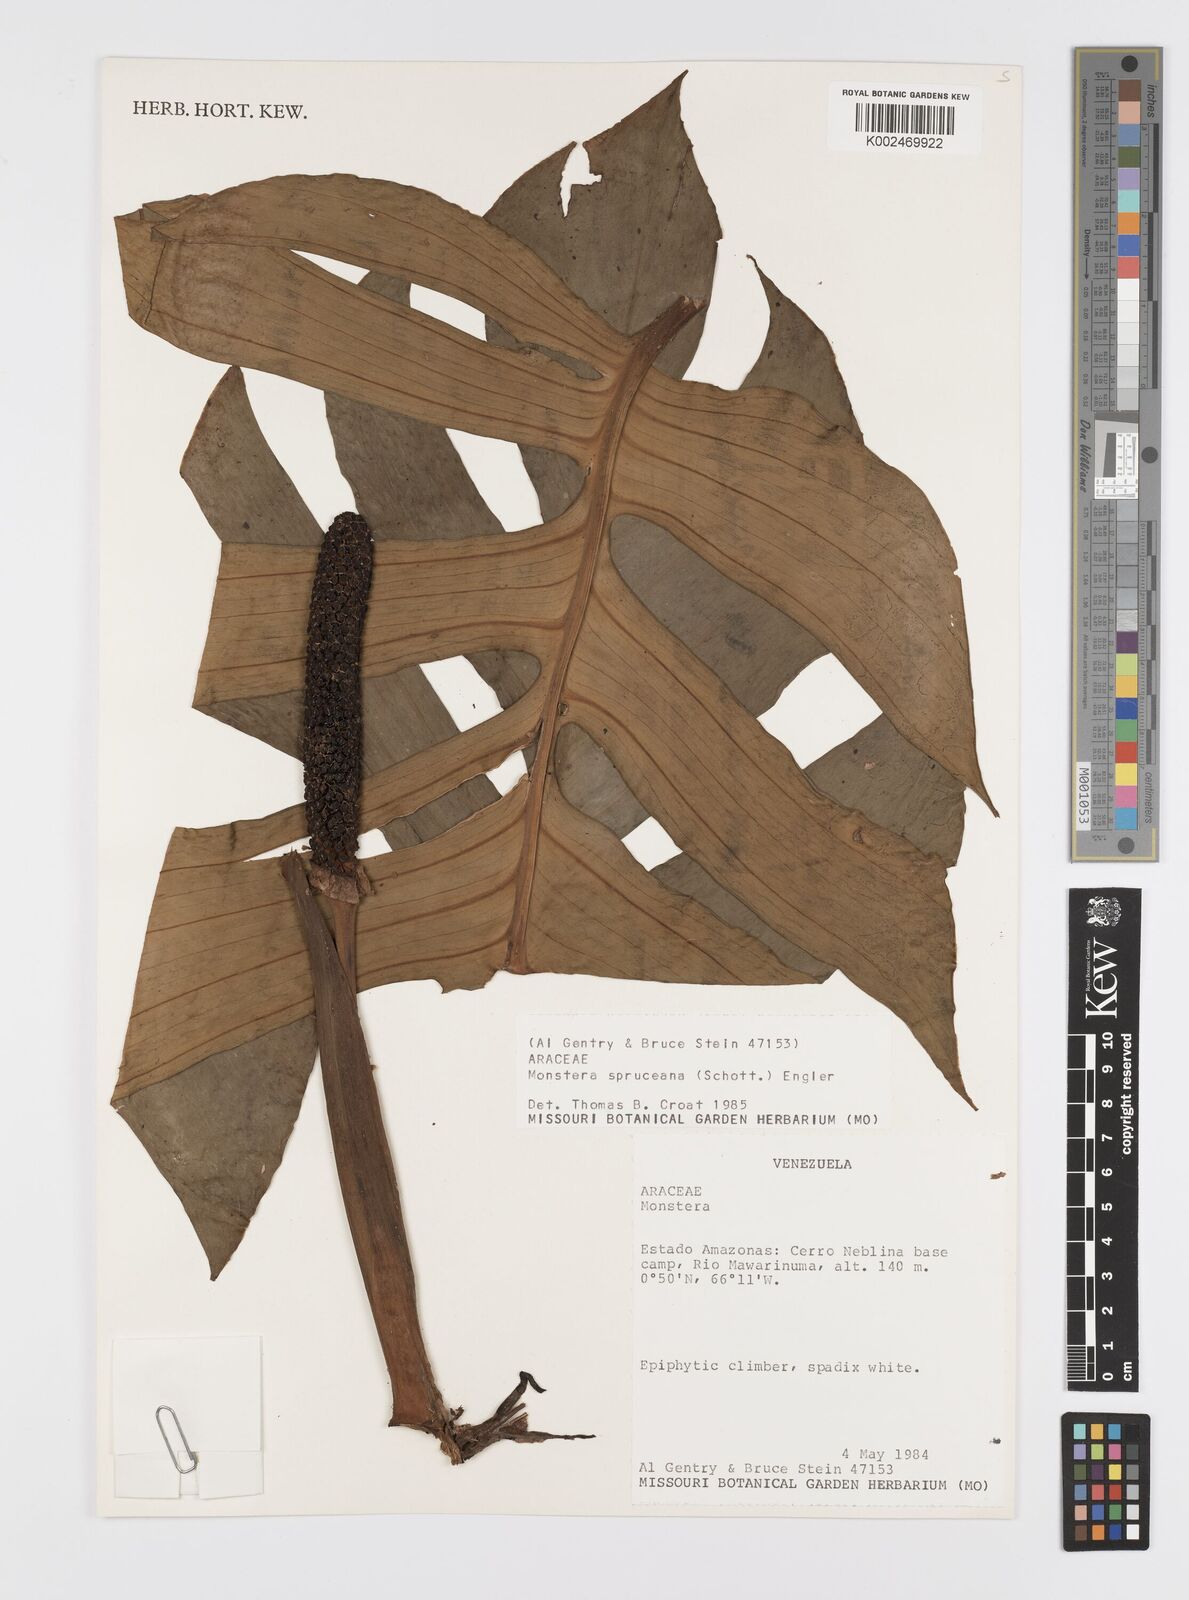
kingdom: Plantae
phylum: Tracheophyta
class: Liliopsida
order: Alismatales
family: Araceae
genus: Monstera
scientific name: Monstera spruceana
